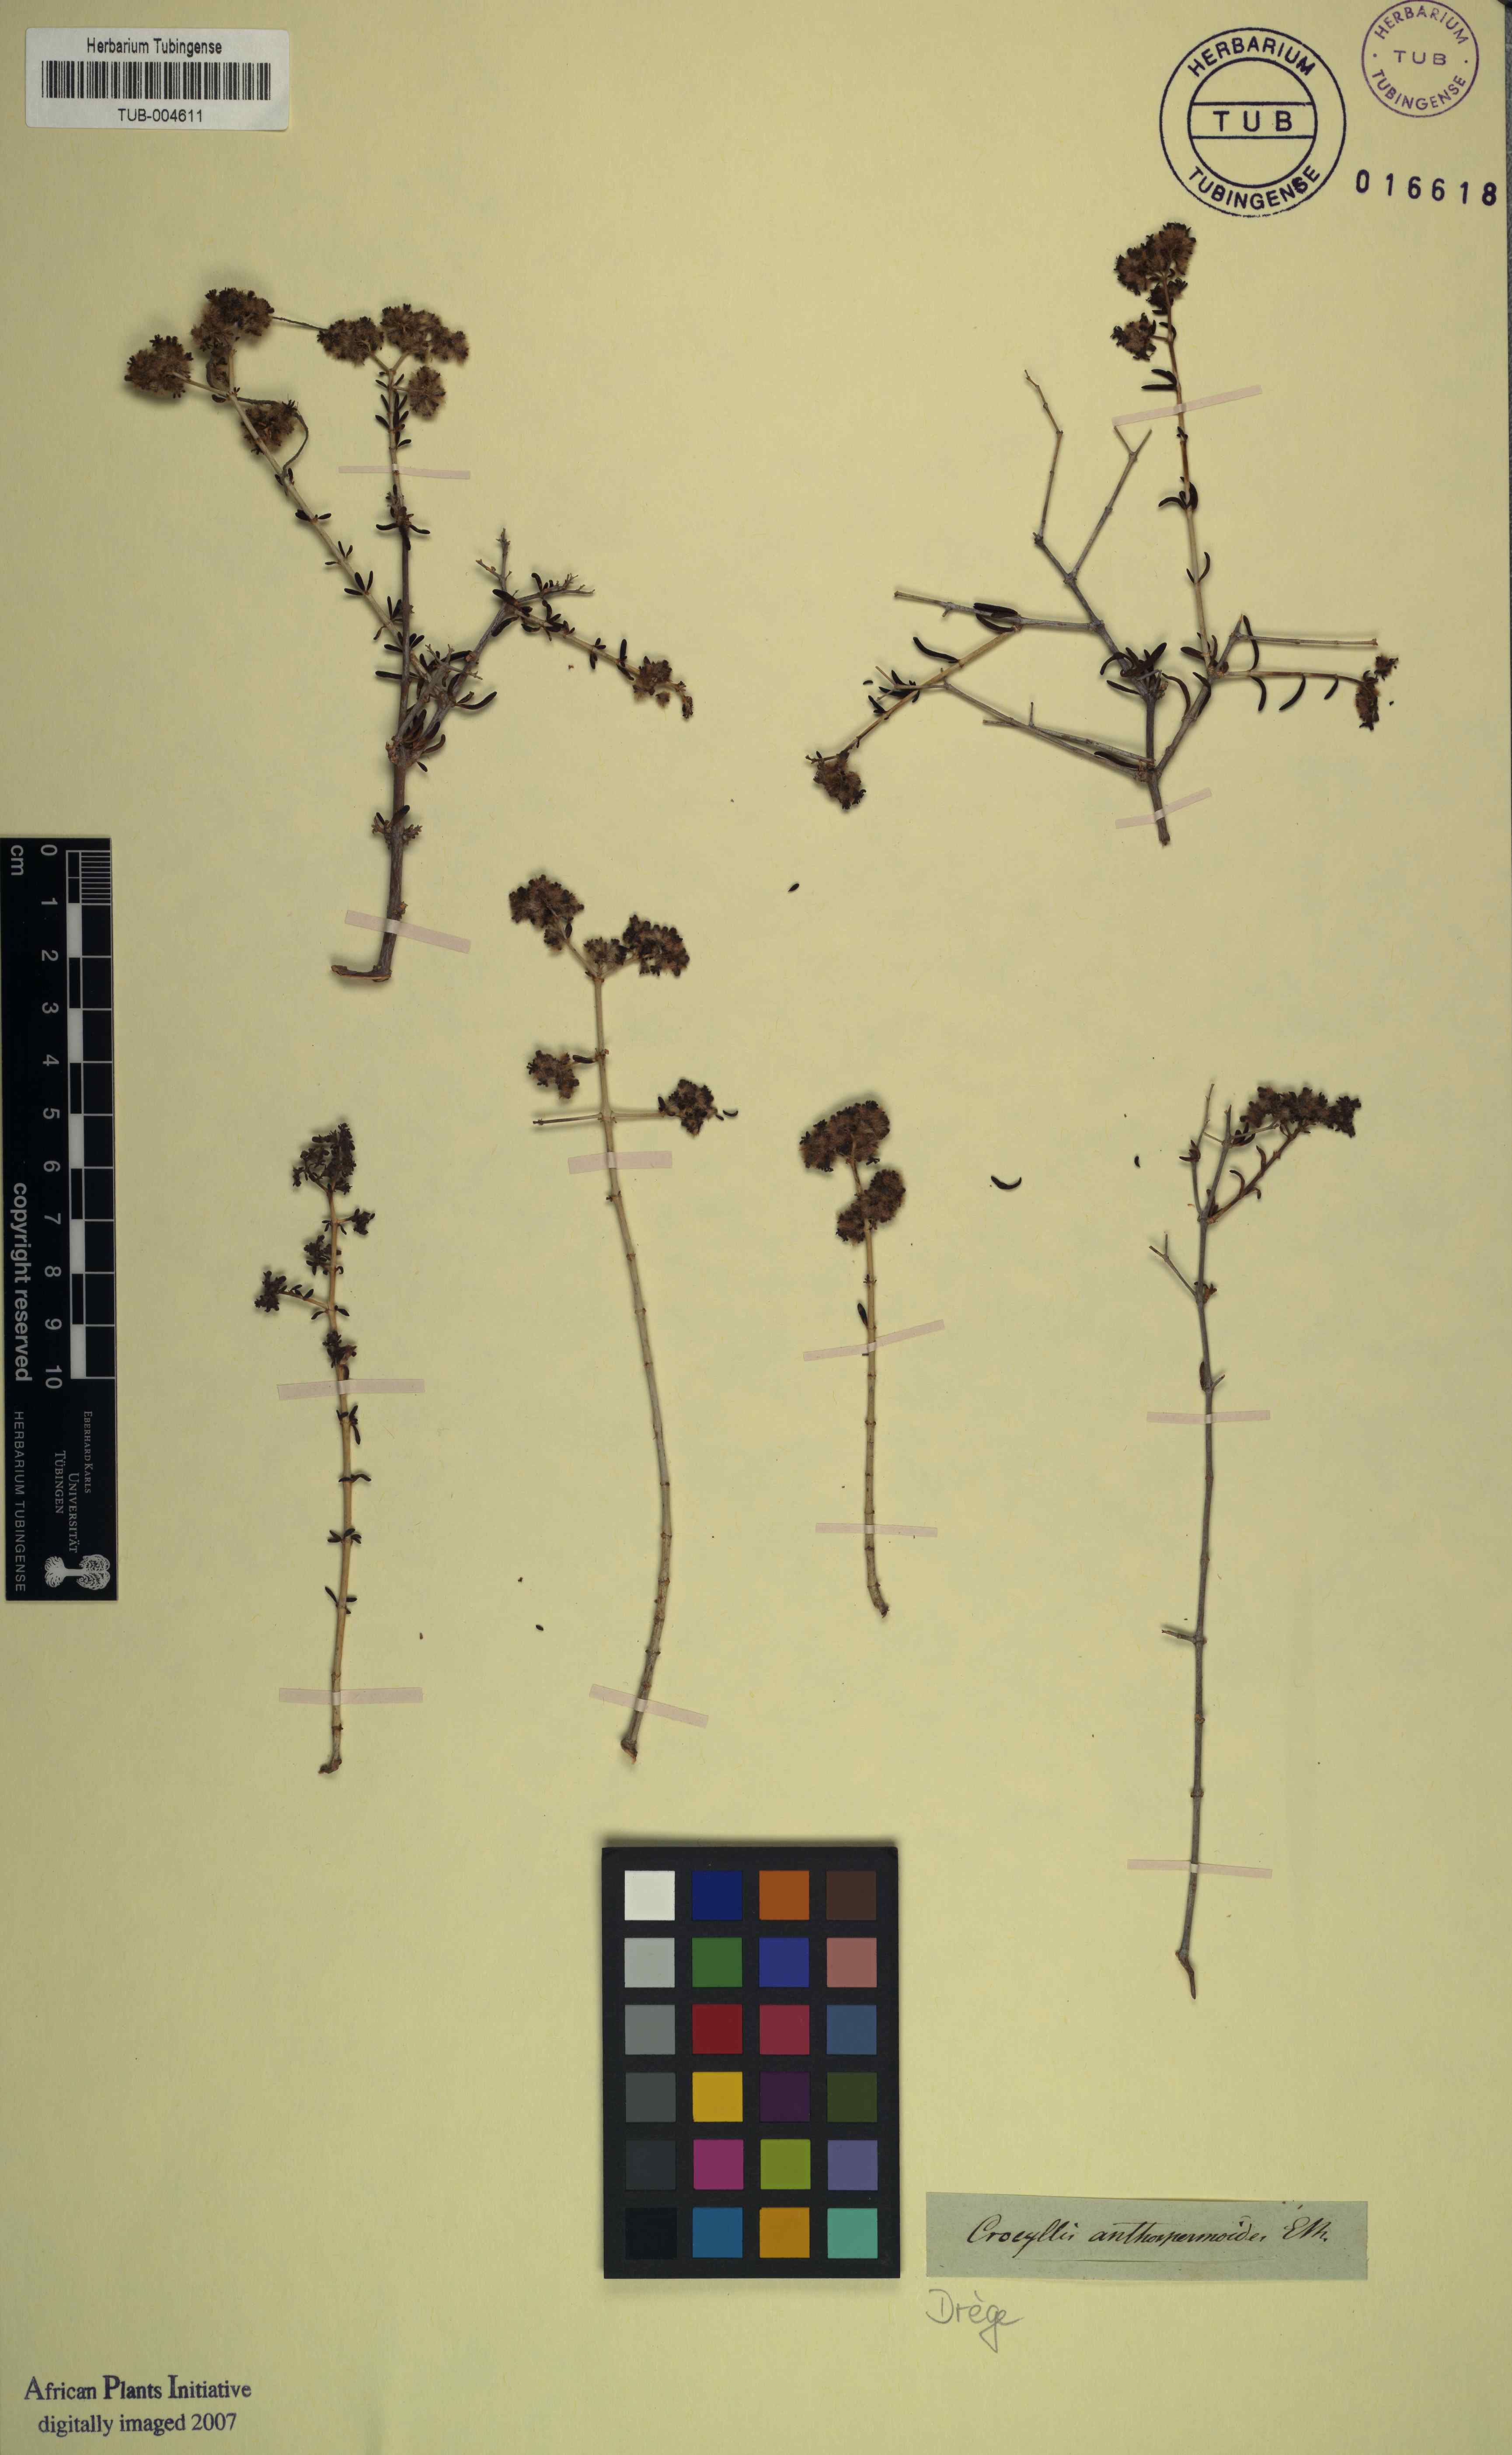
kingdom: Plantae
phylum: Tracheophyta
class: Magnoliopsida
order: Gentianales
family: Rubiaceae
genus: Plocama
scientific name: Plocama Crocyllis anthospermoides
